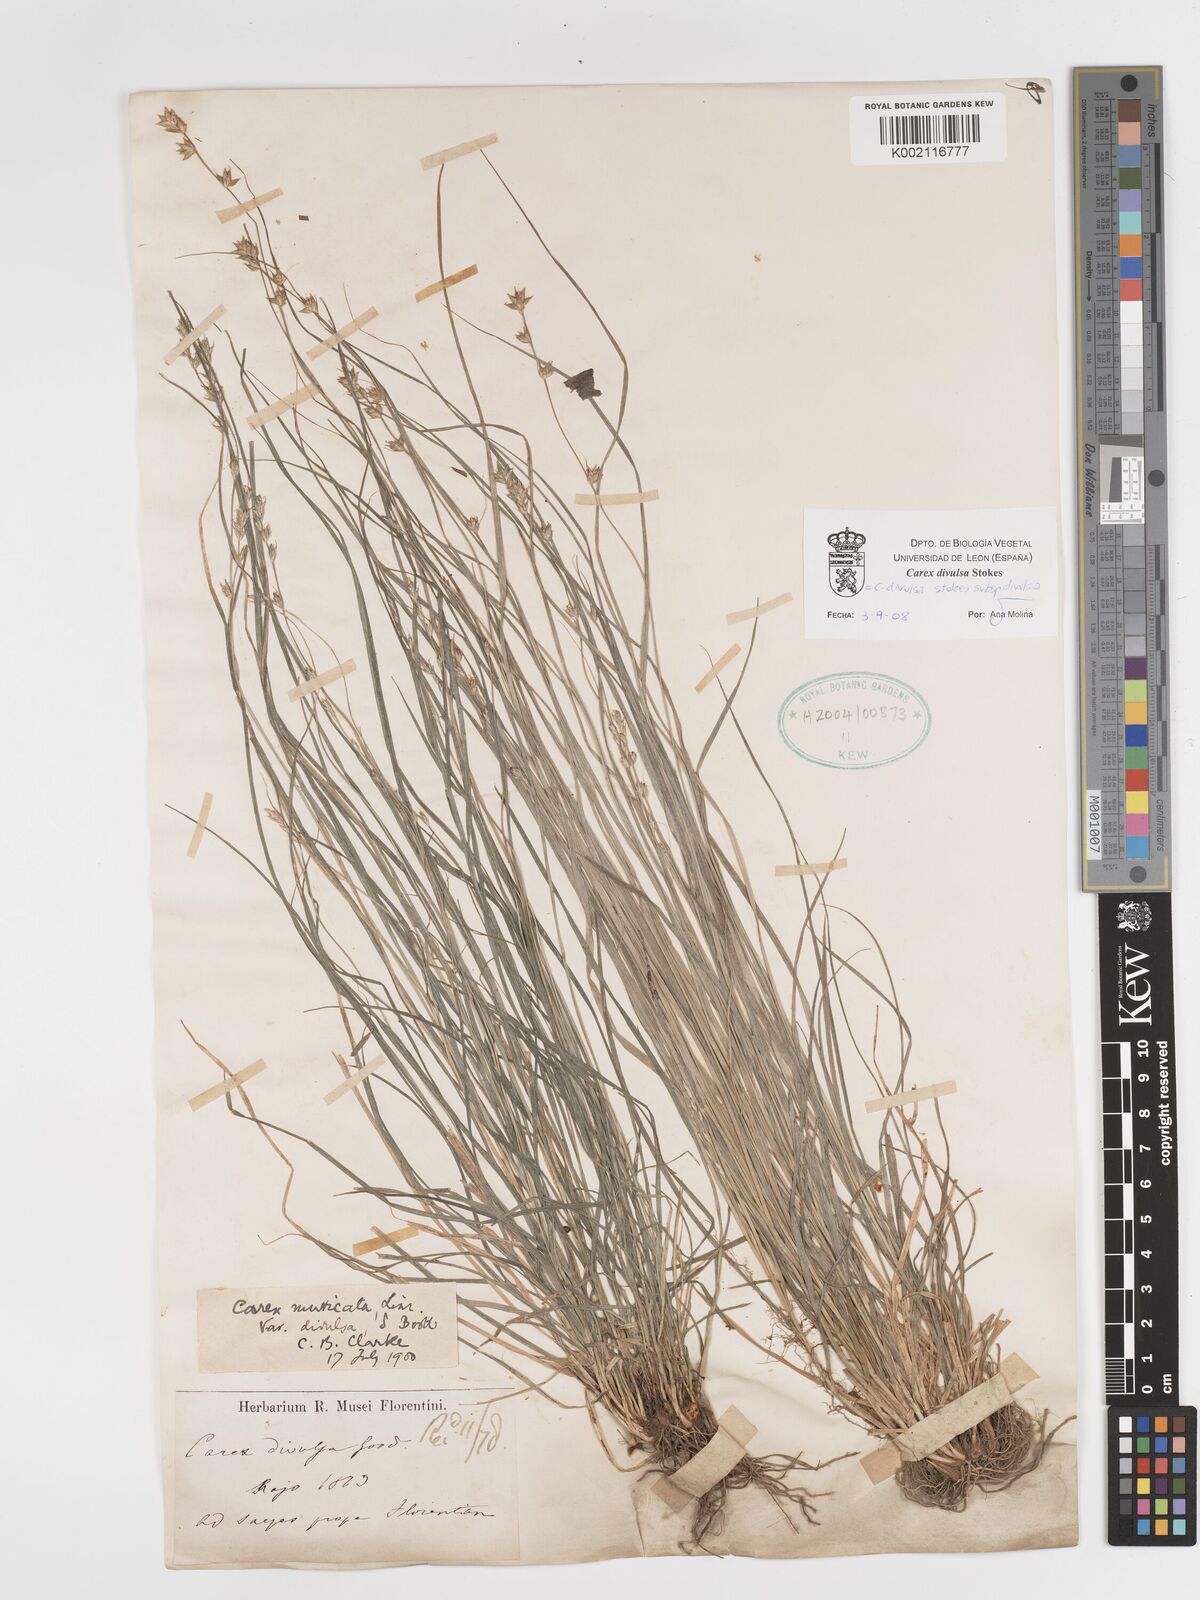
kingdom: Plantae
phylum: Tracheophyta
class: Liliopsida
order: Poales
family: Cyperaceae
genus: Carex
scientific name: Carex divulsa
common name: Grassland sedge
